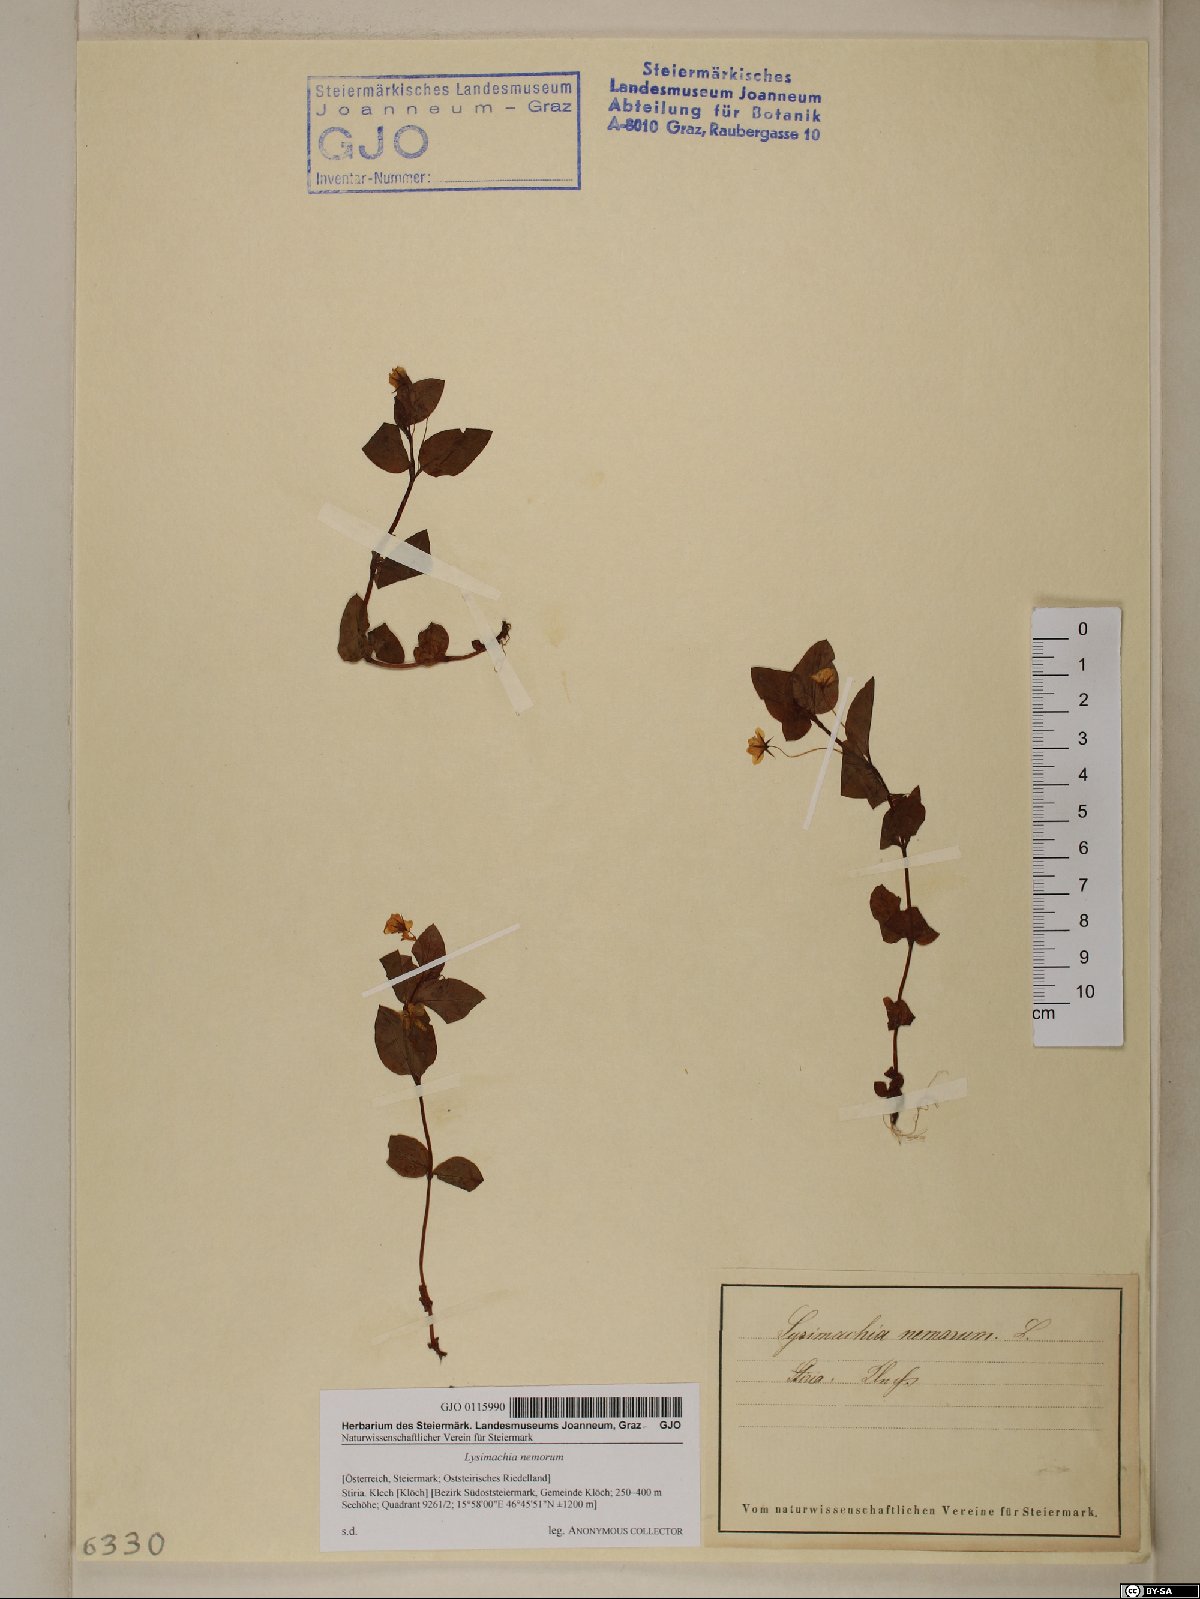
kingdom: Plantae
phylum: Tracheophyta
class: Magnoliopsida
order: Ericales
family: Primulaceae
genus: Lysimachia
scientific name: Lysimachia nemorum
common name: Yellow pimpernel
